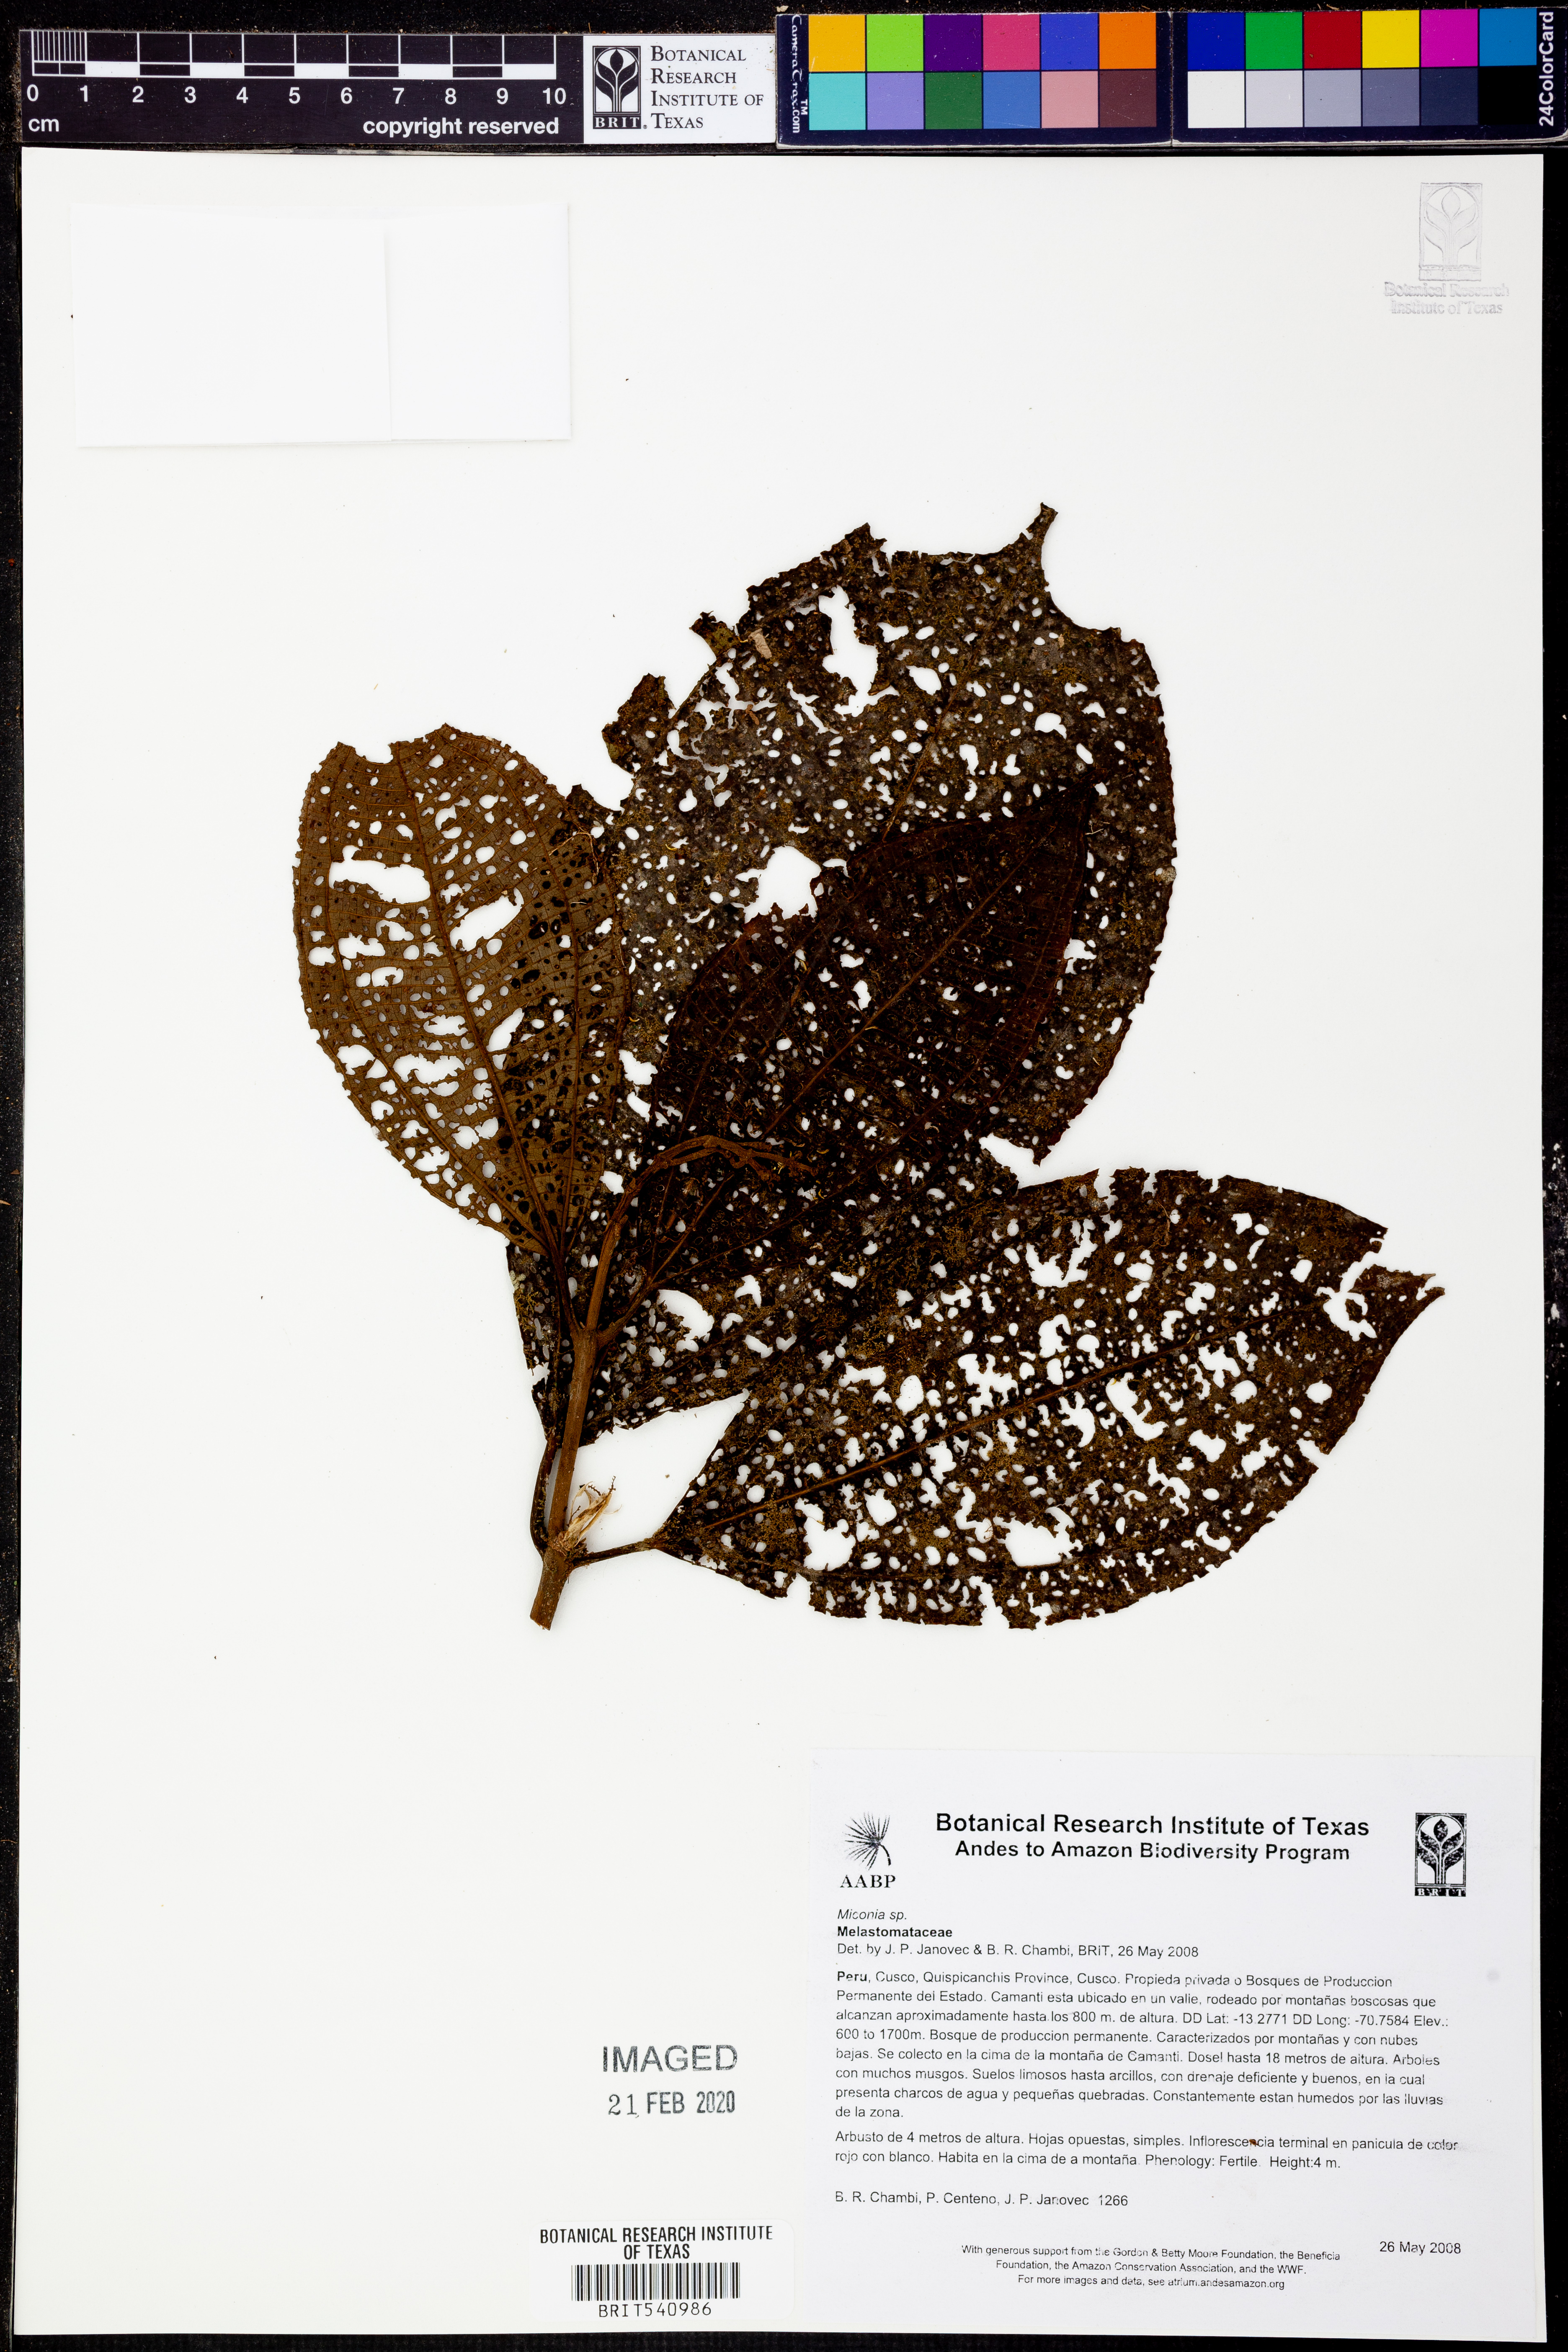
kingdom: Plantae
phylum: Tracheophyta
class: Magnoliopsida
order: Myrtales
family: Melastomataceae
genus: Miconia
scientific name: Miconia
